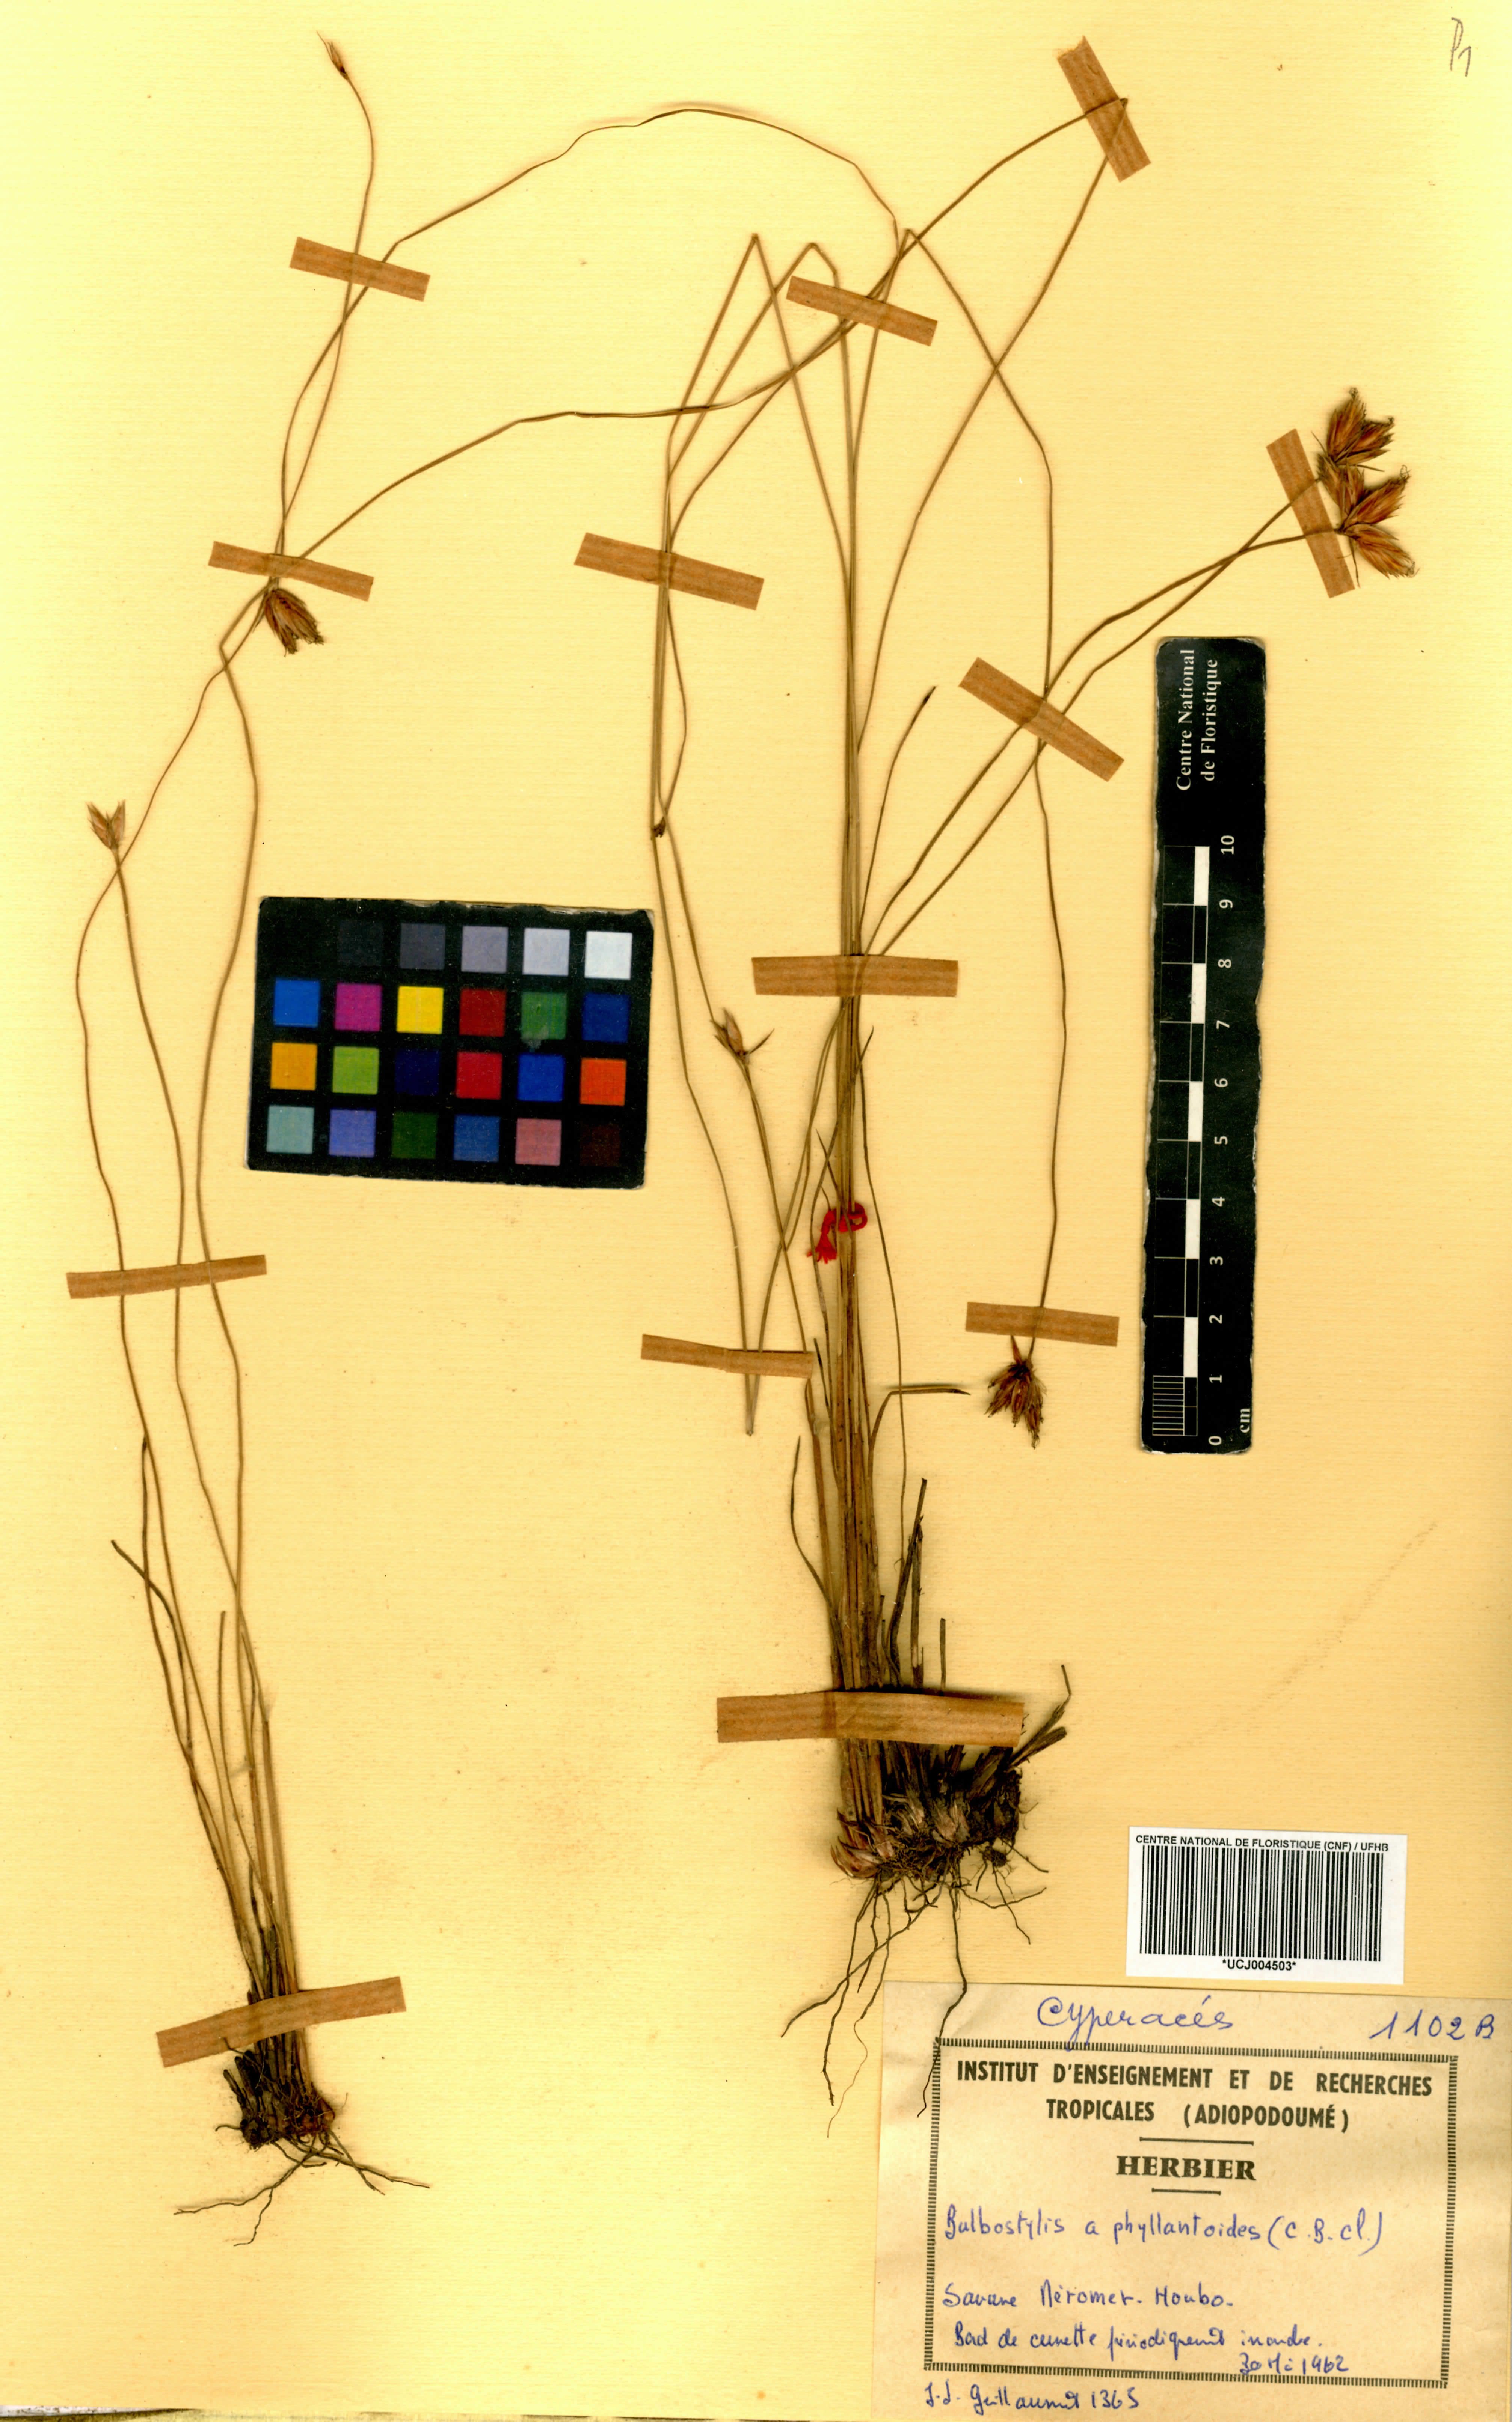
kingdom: Plantae
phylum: Tracheophyta
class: Liliopsida
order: Poales
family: Cyperaceae
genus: Bulbostylis
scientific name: Bulbostylis pilosa
